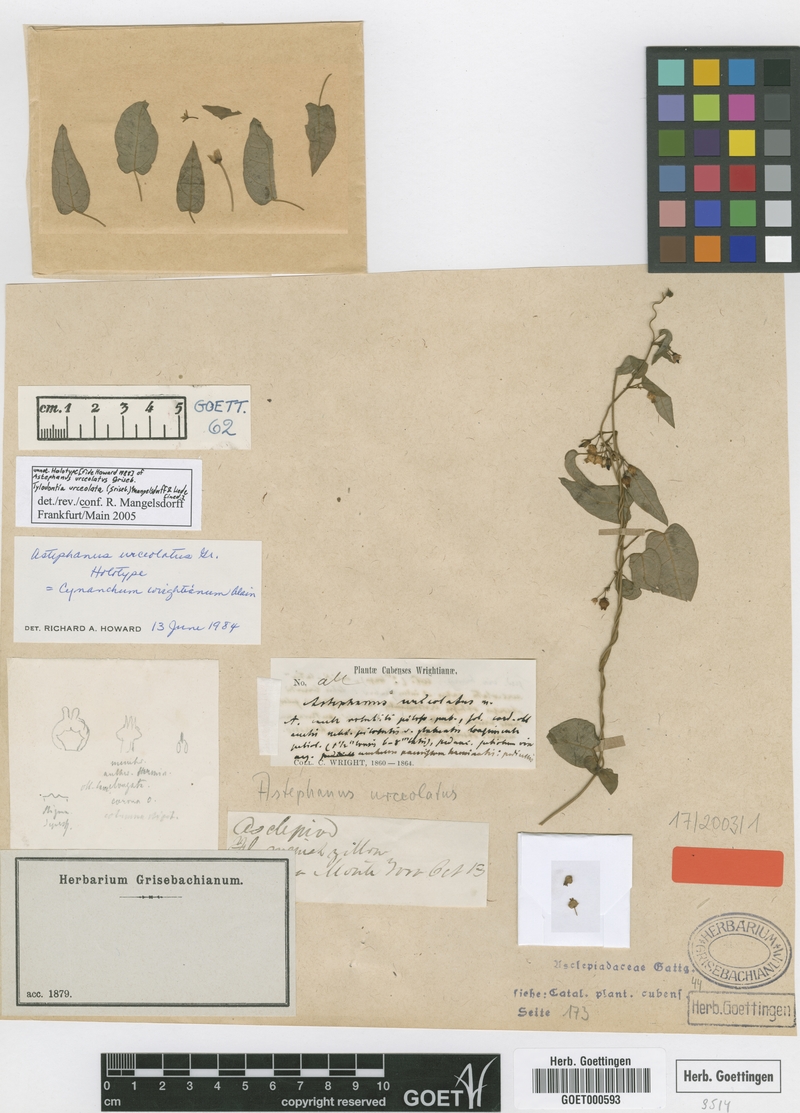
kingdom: Plantae
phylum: Tracheophyta
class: Magnoliopsida
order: Gentianales
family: Apocynaceae
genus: Tylodontia
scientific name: Tylodontia urceolata
